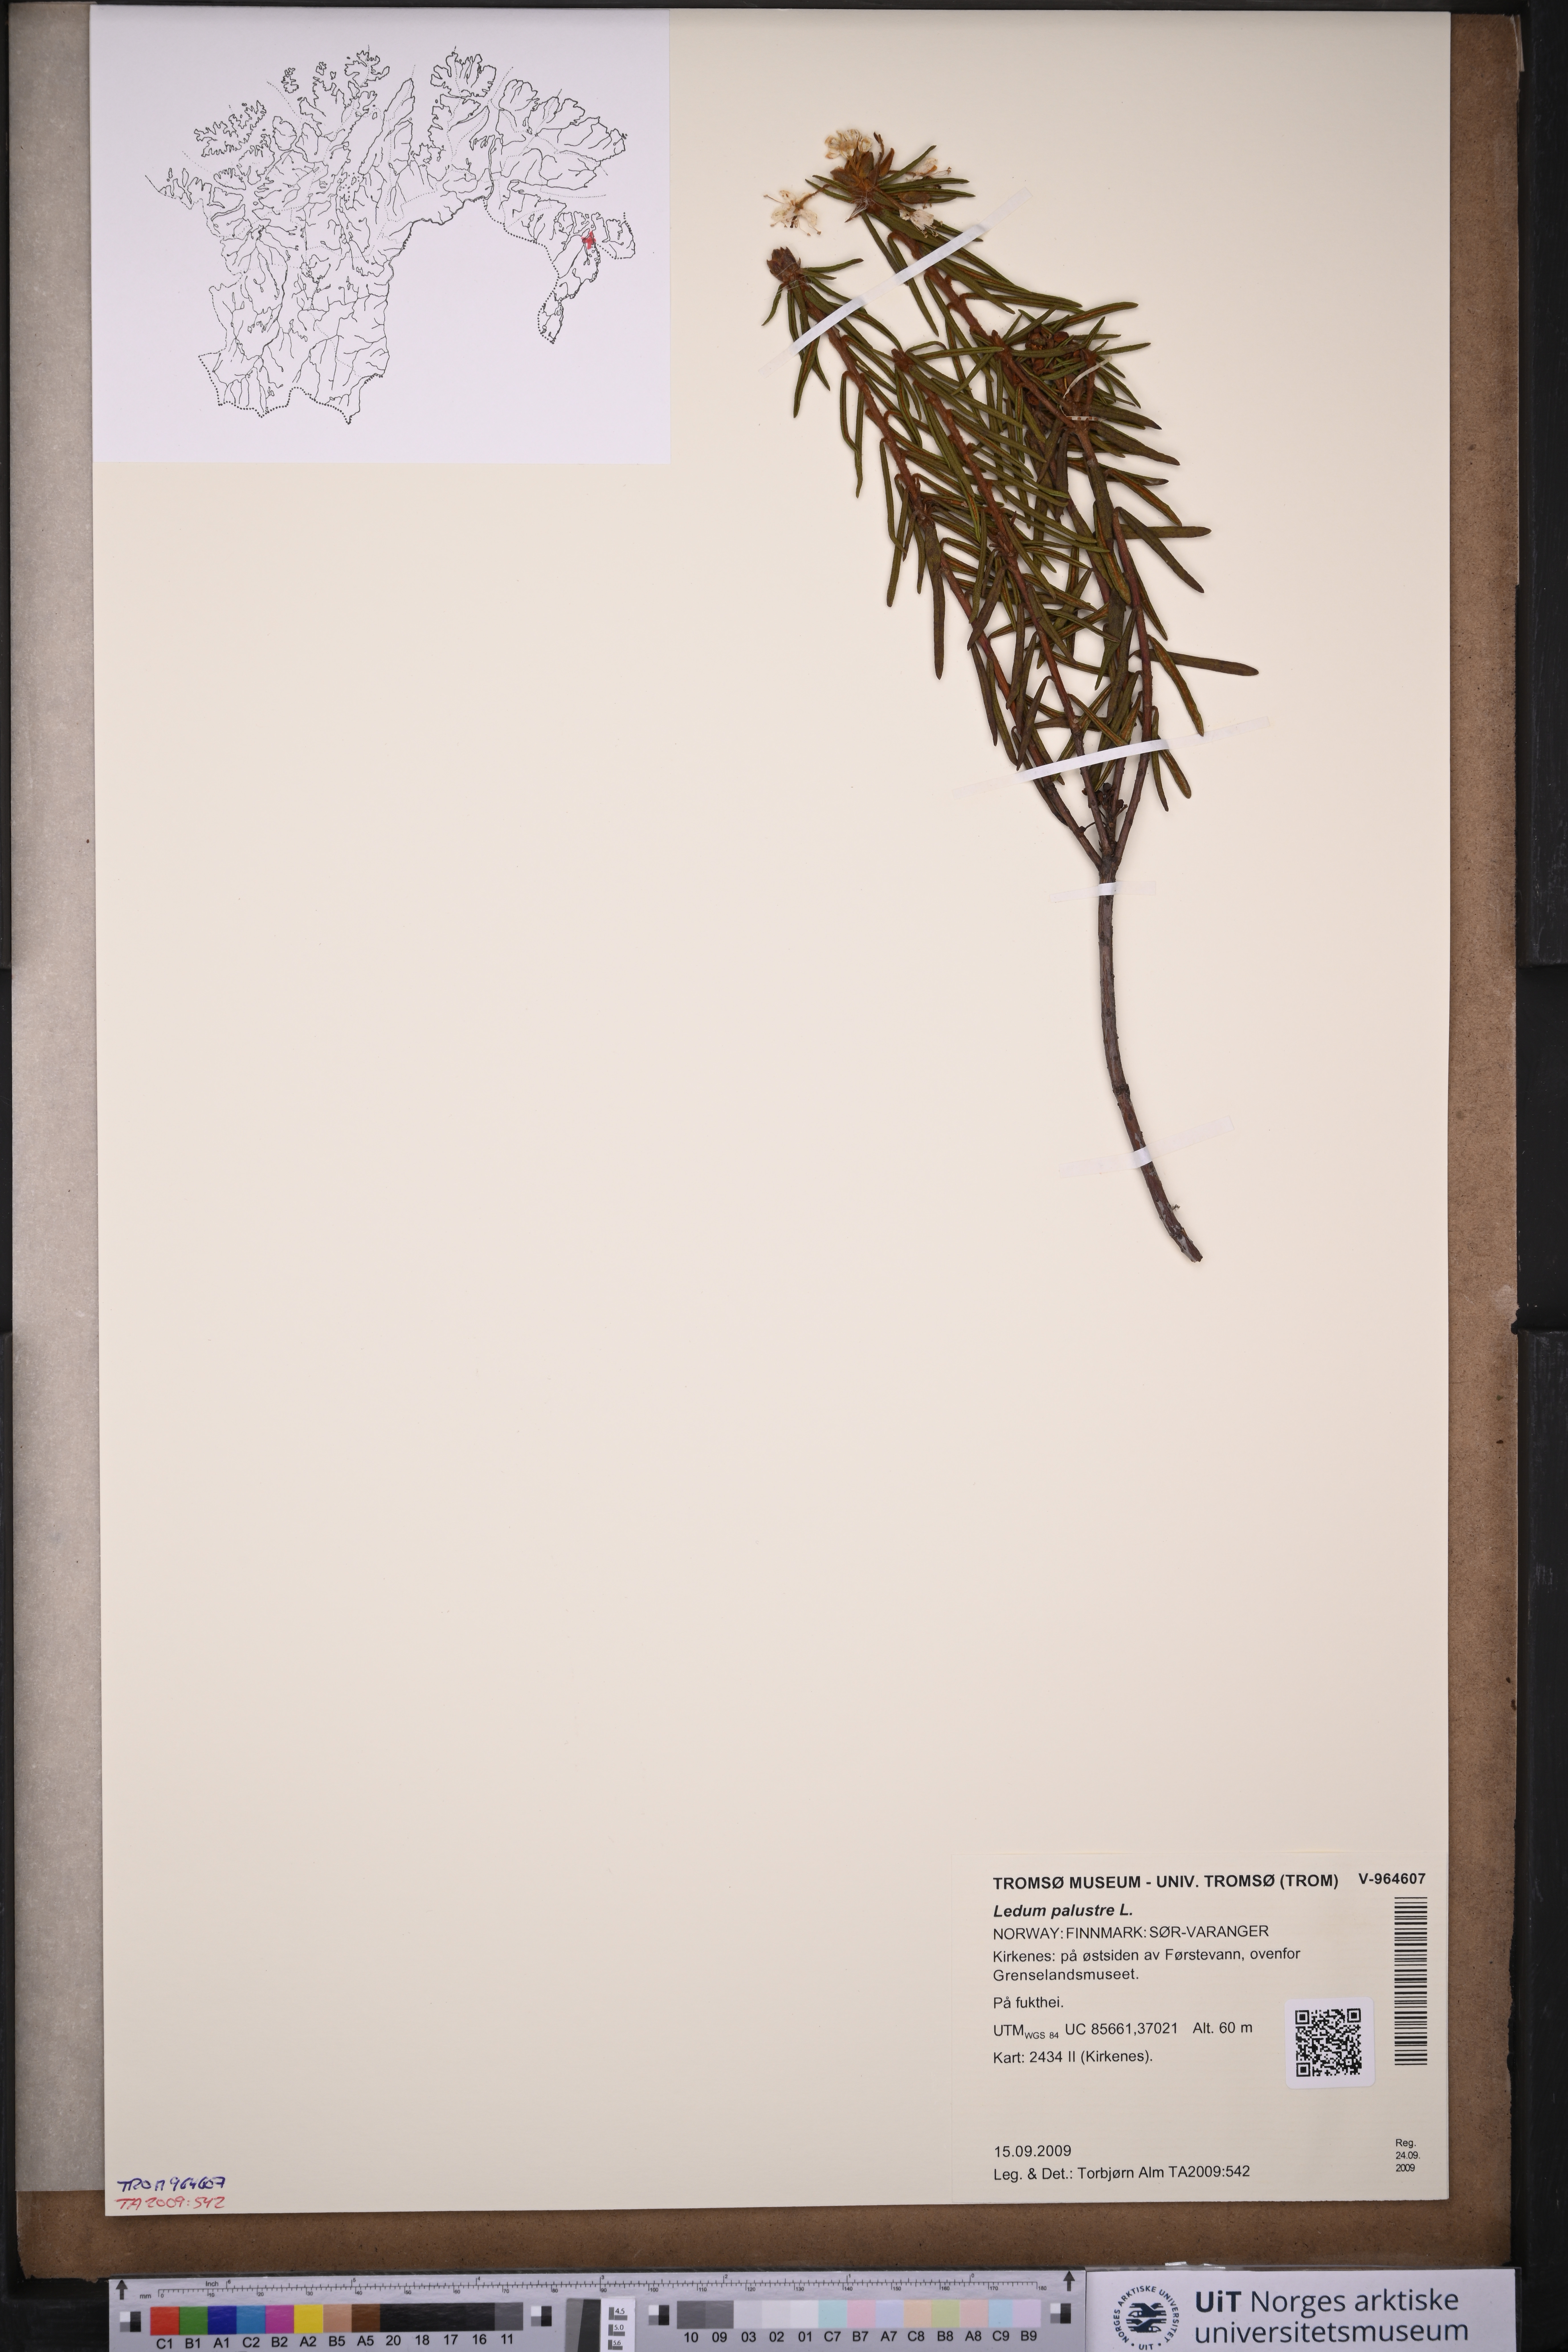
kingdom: Plantae
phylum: Tracheophyta
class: Magnoliopsida
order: Ericales
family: Ericaceae
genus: Rhododendron
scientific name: Rhododendron tomentosum
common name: Marsh labrador tea
